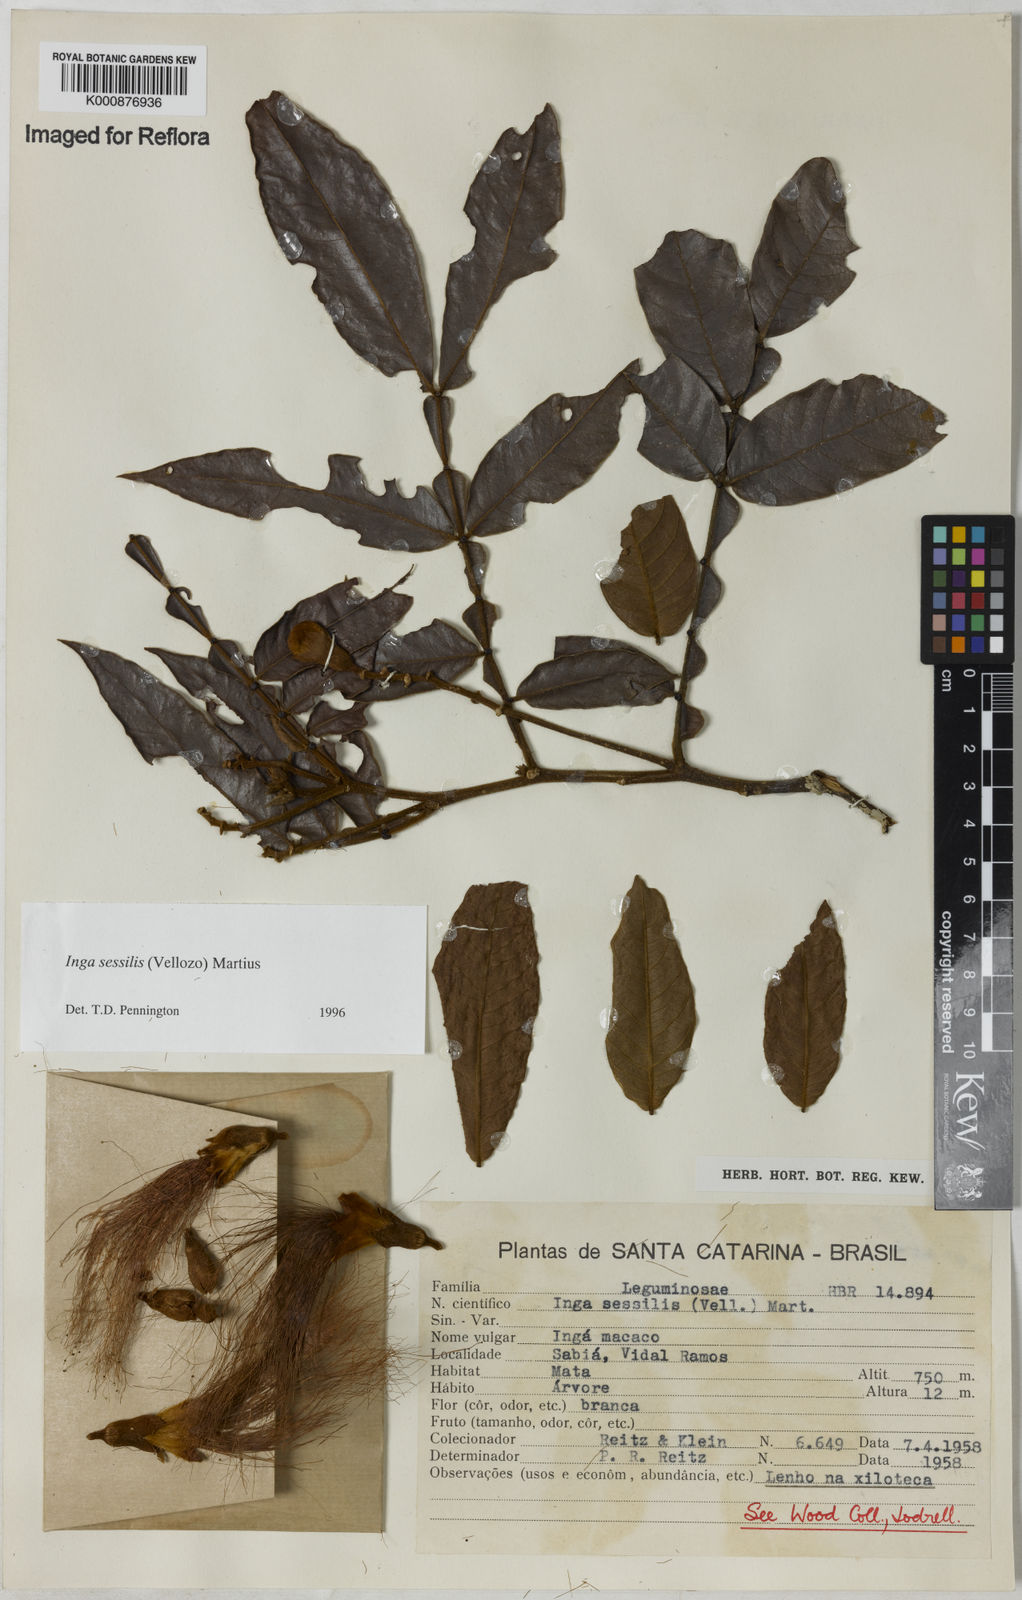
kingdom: Plantae
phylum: Tracheophyta
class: Magnoliopsida
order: Fabales
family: Fabaceae
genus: Inga
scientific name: Inga sessilis
